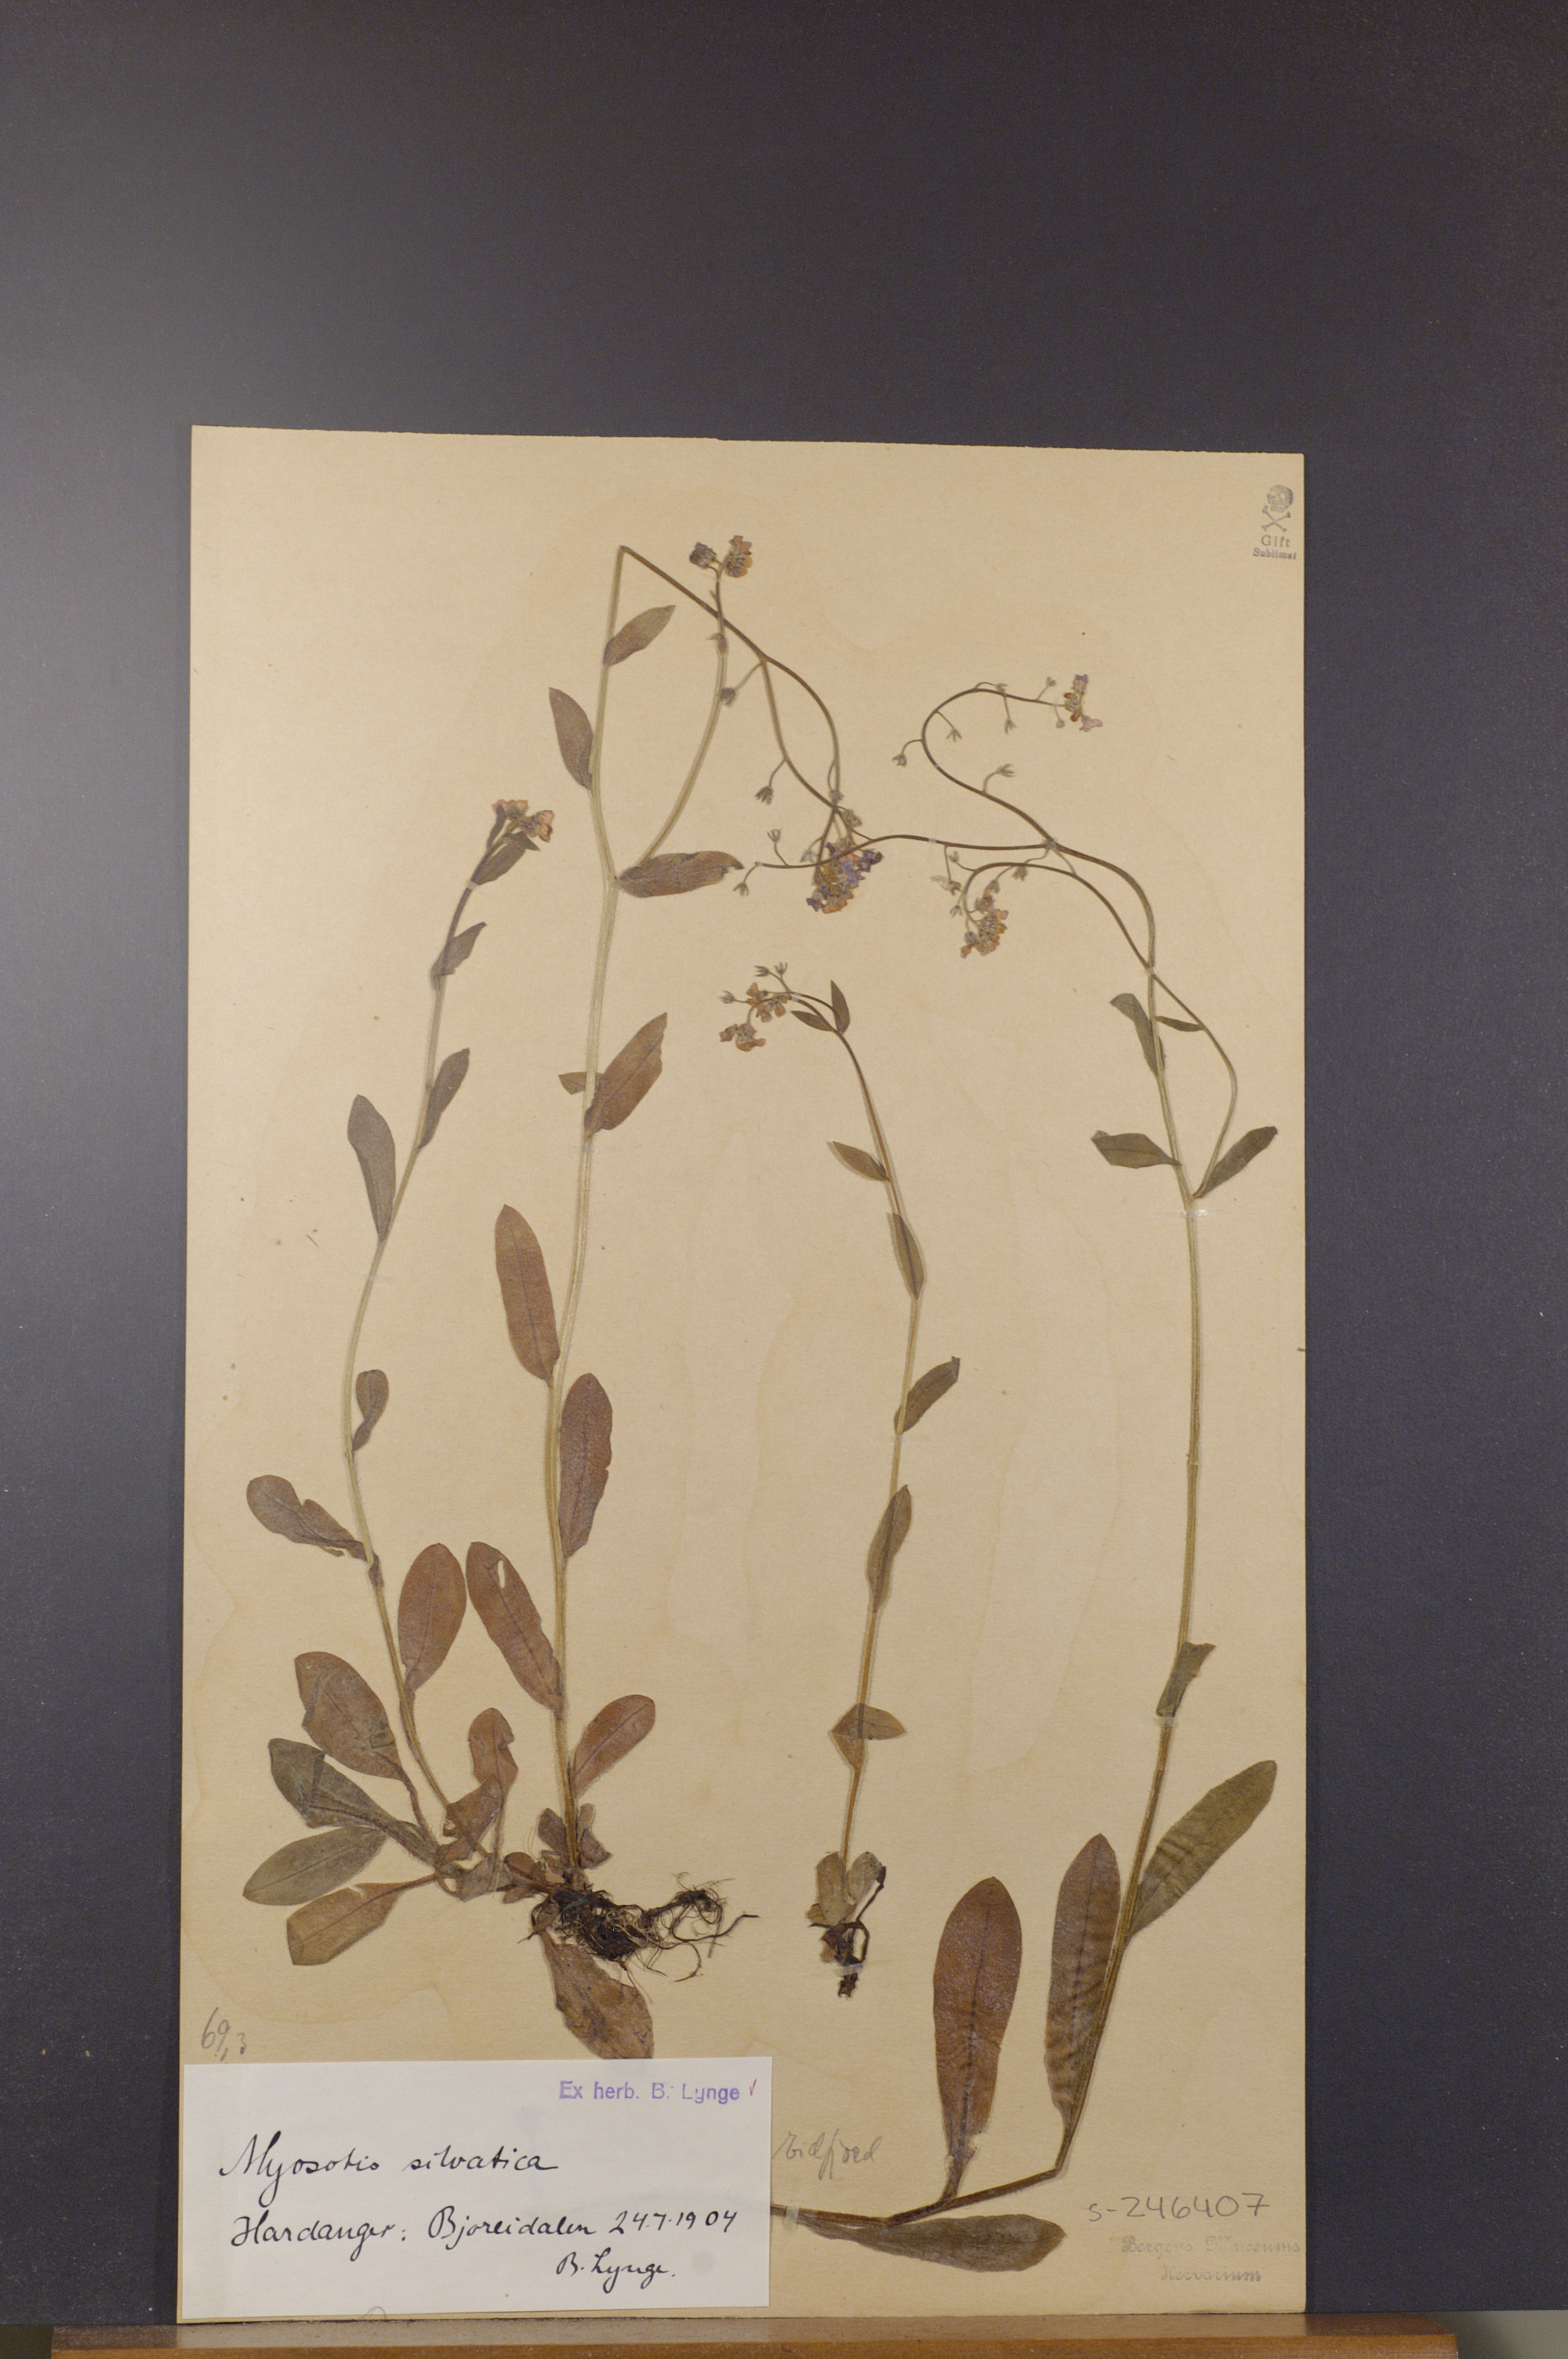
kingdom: Plantae
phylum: Tracheophyta
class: Magnoliopsida
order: Boraginales
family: Boraginaceae
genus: Myosotis
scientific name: Myosotis decumbens
